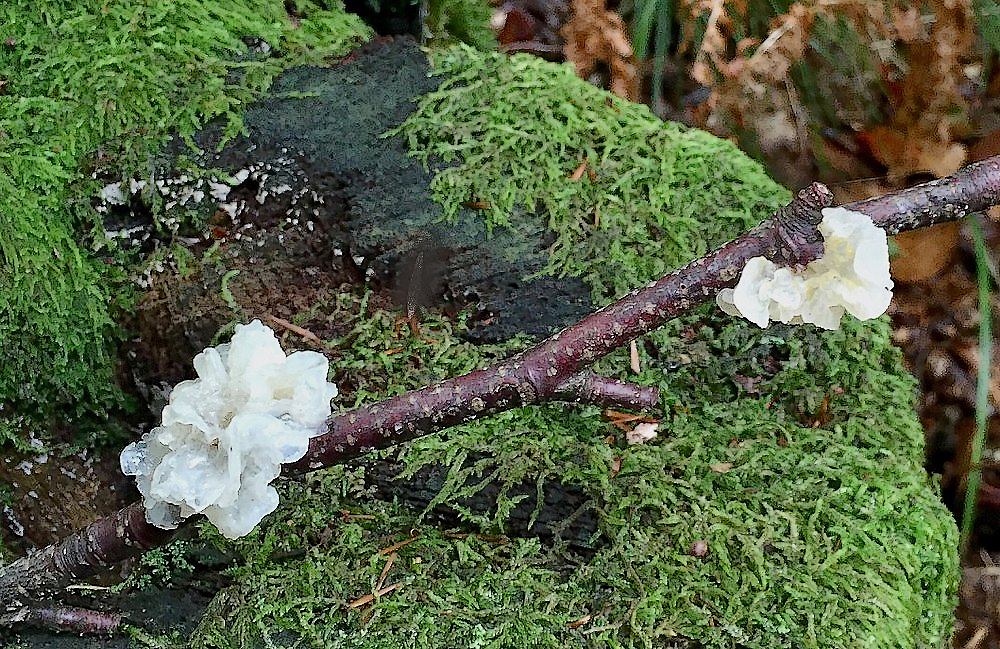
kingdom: Fungi
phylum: Basidiomycota
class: Tremellomycetes
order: Tremellales
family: Tremellaceae
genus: Tremella
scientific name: Tremella mesenterica
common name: gul bævresvamp
